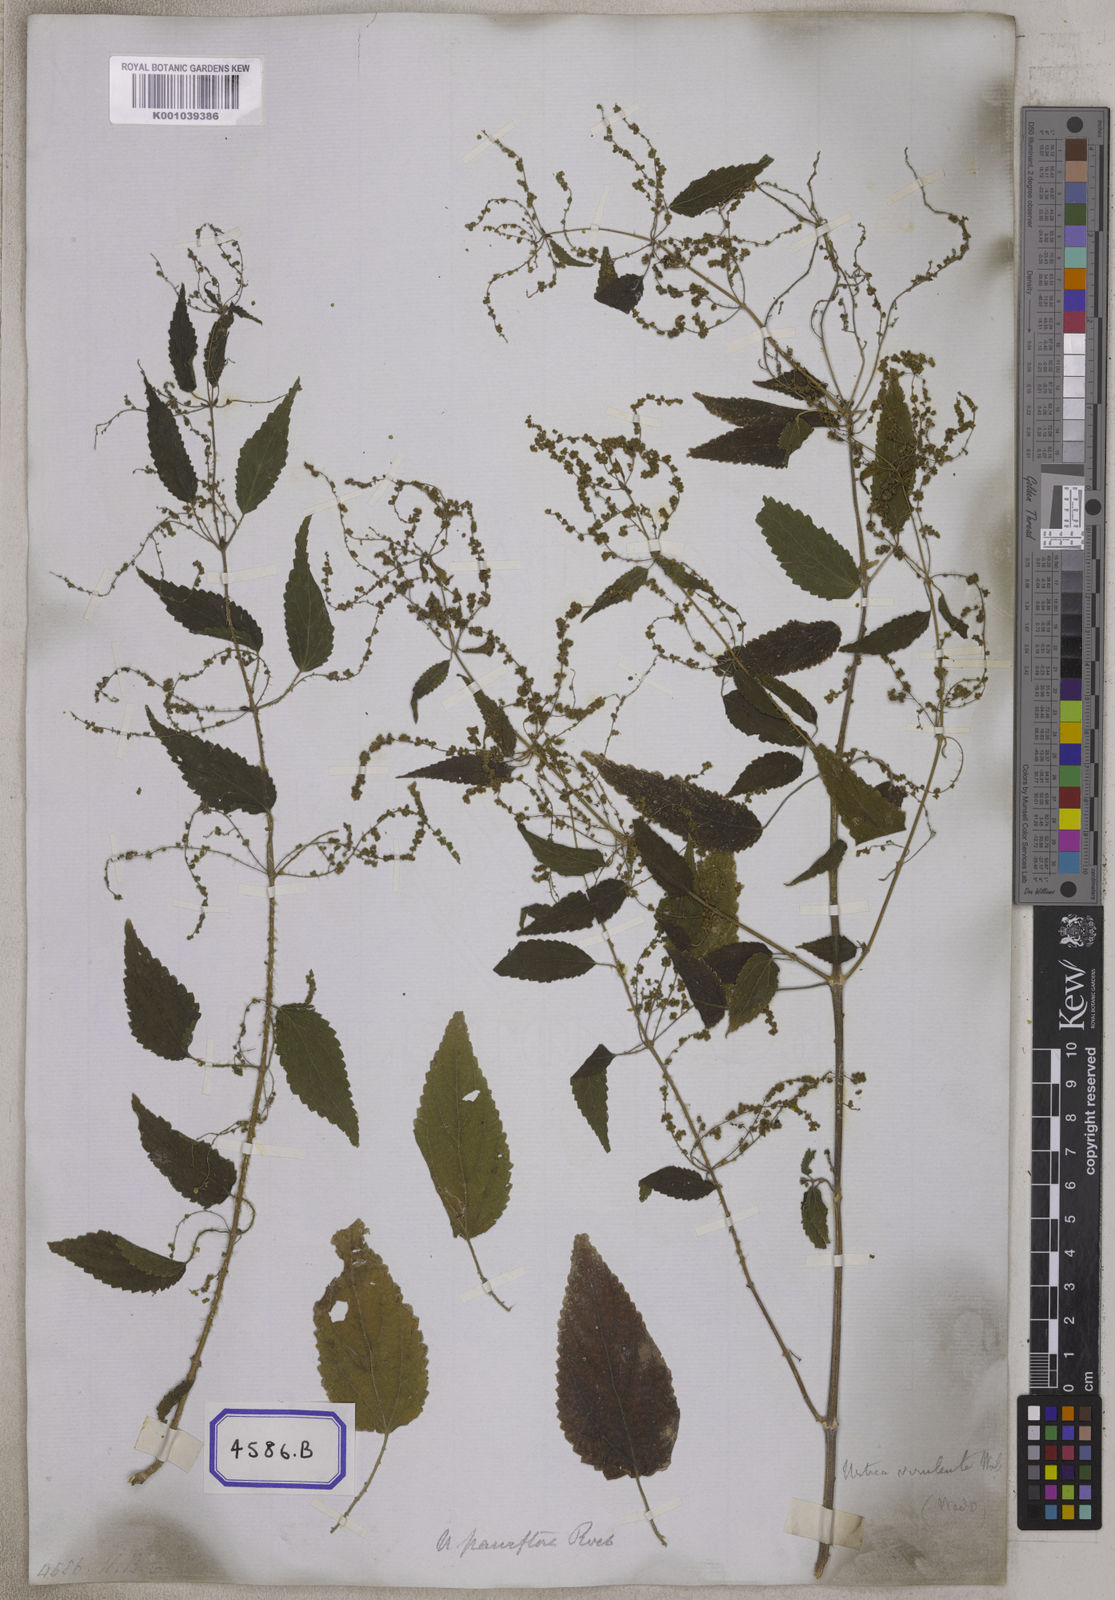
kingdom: Plantae
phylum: Tracheophyta
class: Magnoliopsida
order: Rosales
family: Urticaceae
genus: Urtica
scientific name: Urtica ardens
